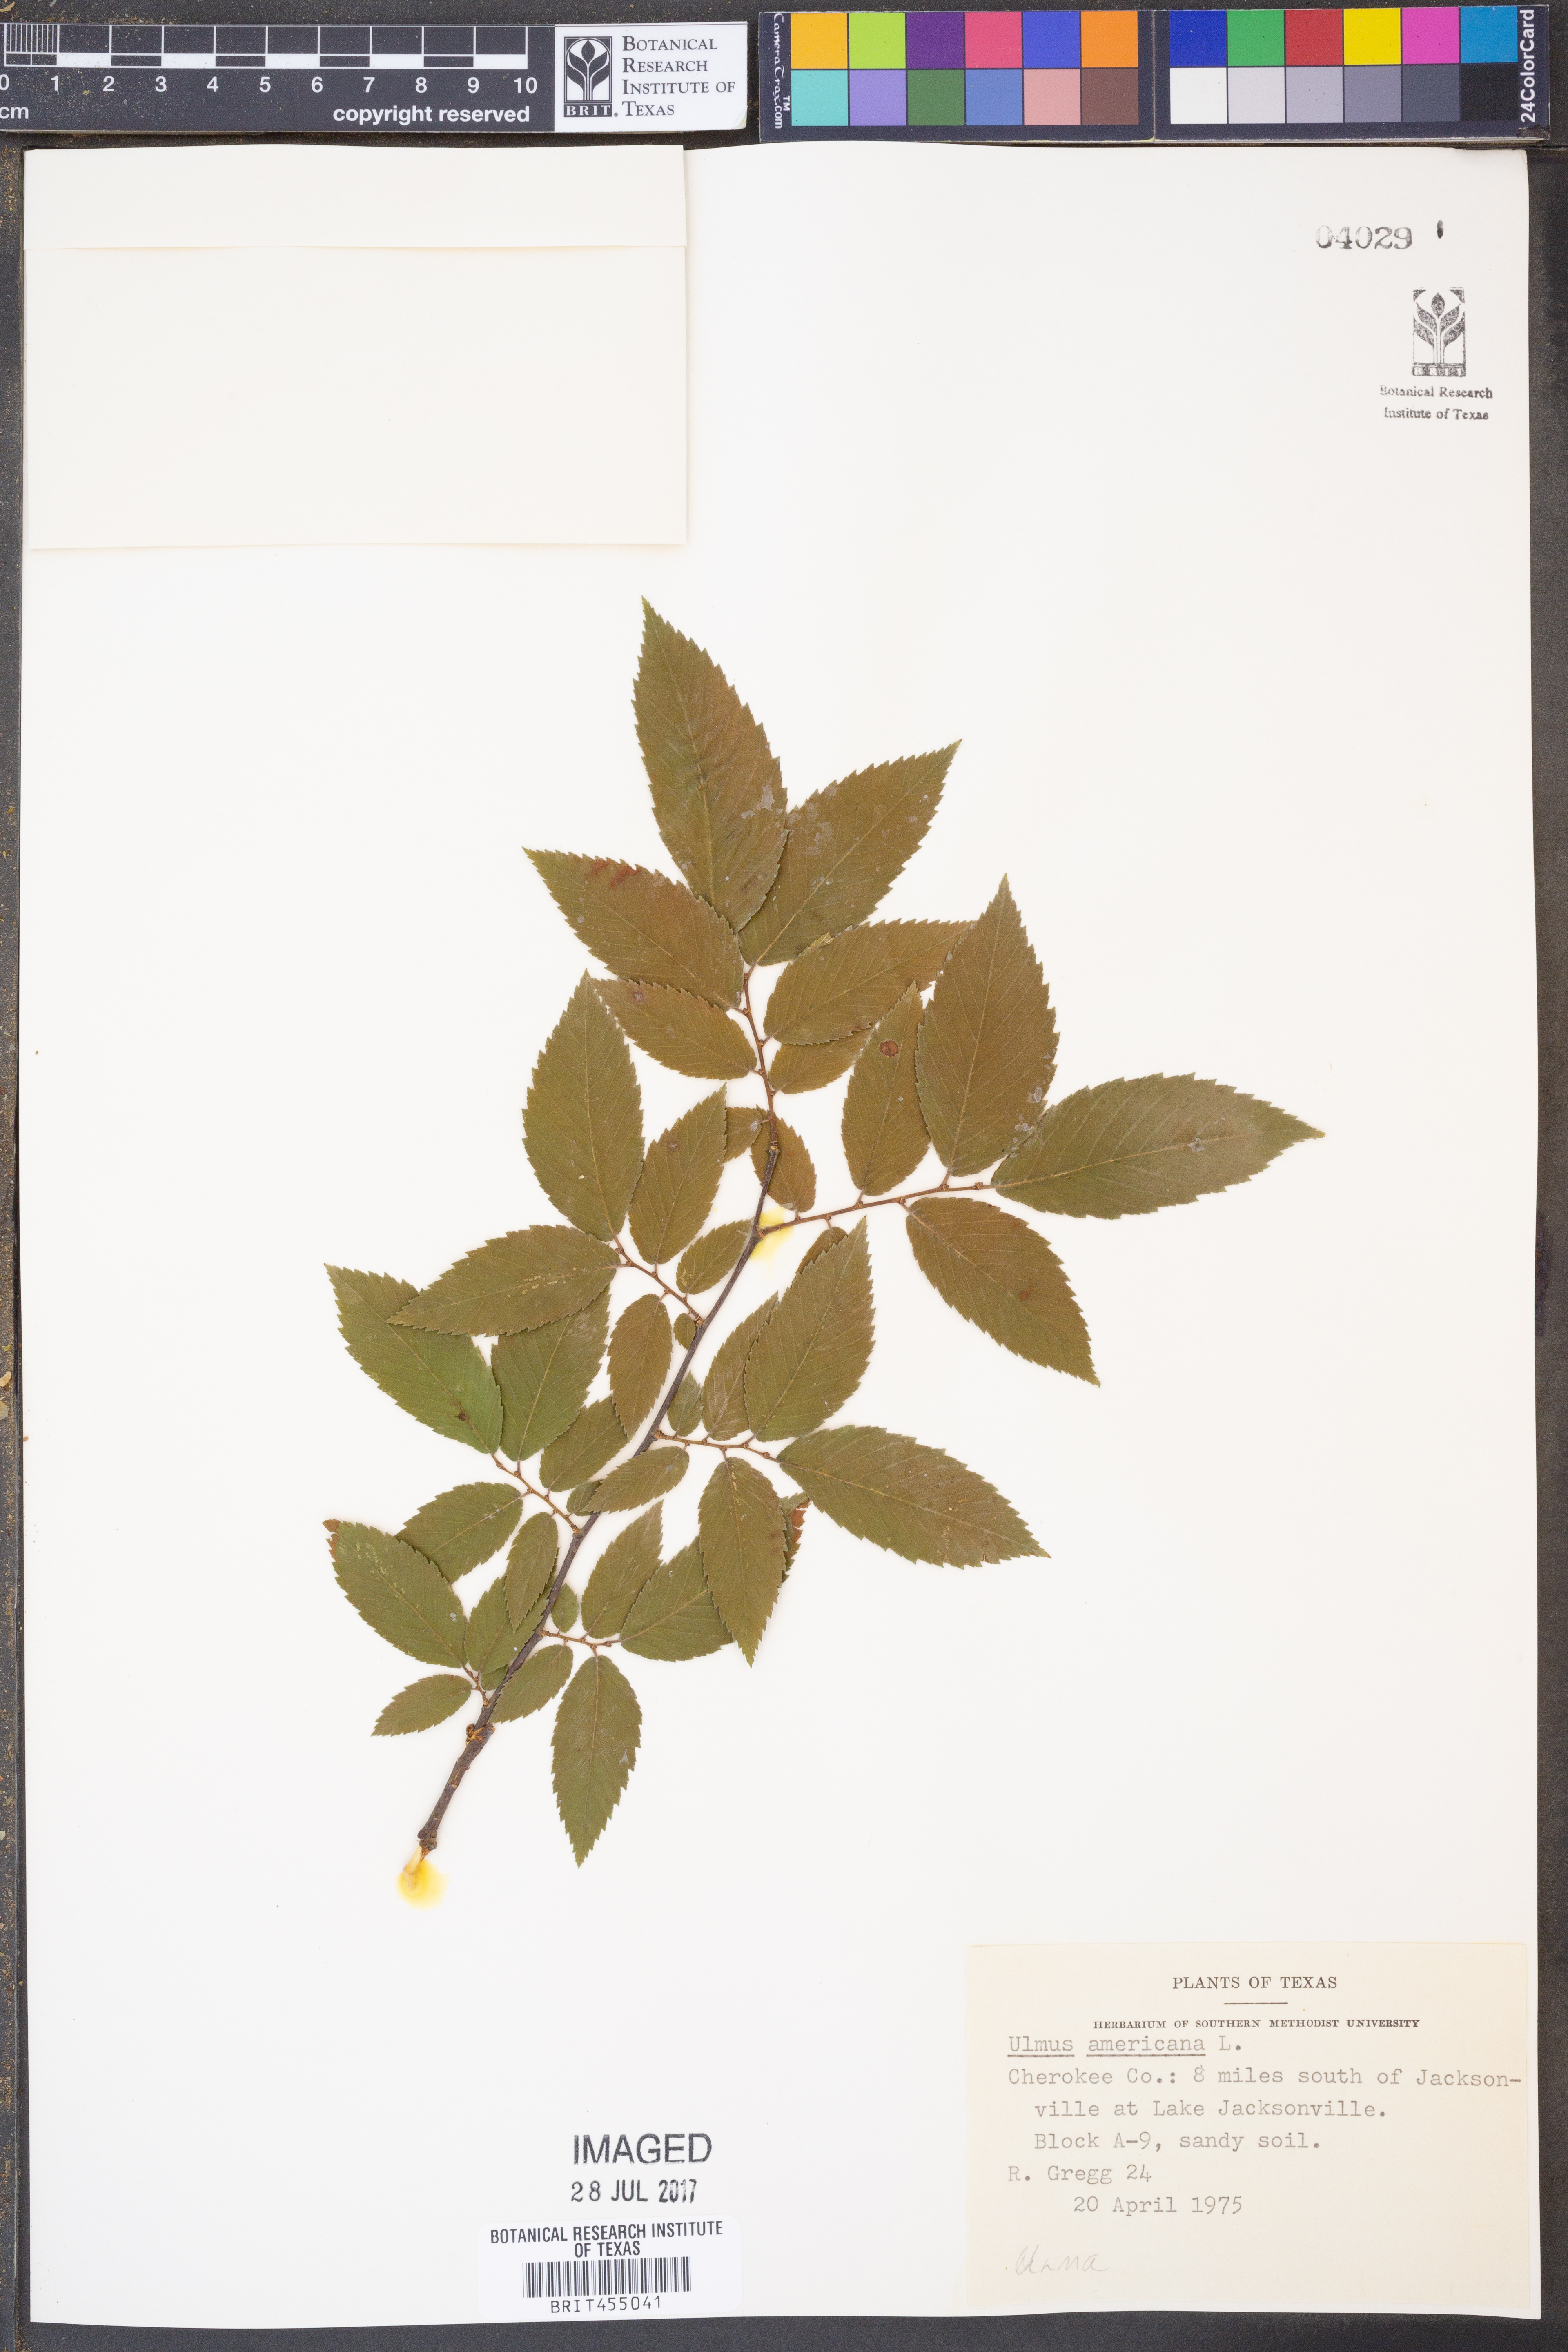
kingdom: Plantae
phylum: Tracheophyta
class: Magnoliopsida
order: Rosales
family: Ulmaceae
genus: Ulmus
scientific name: Ulmus americana
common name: American elm
